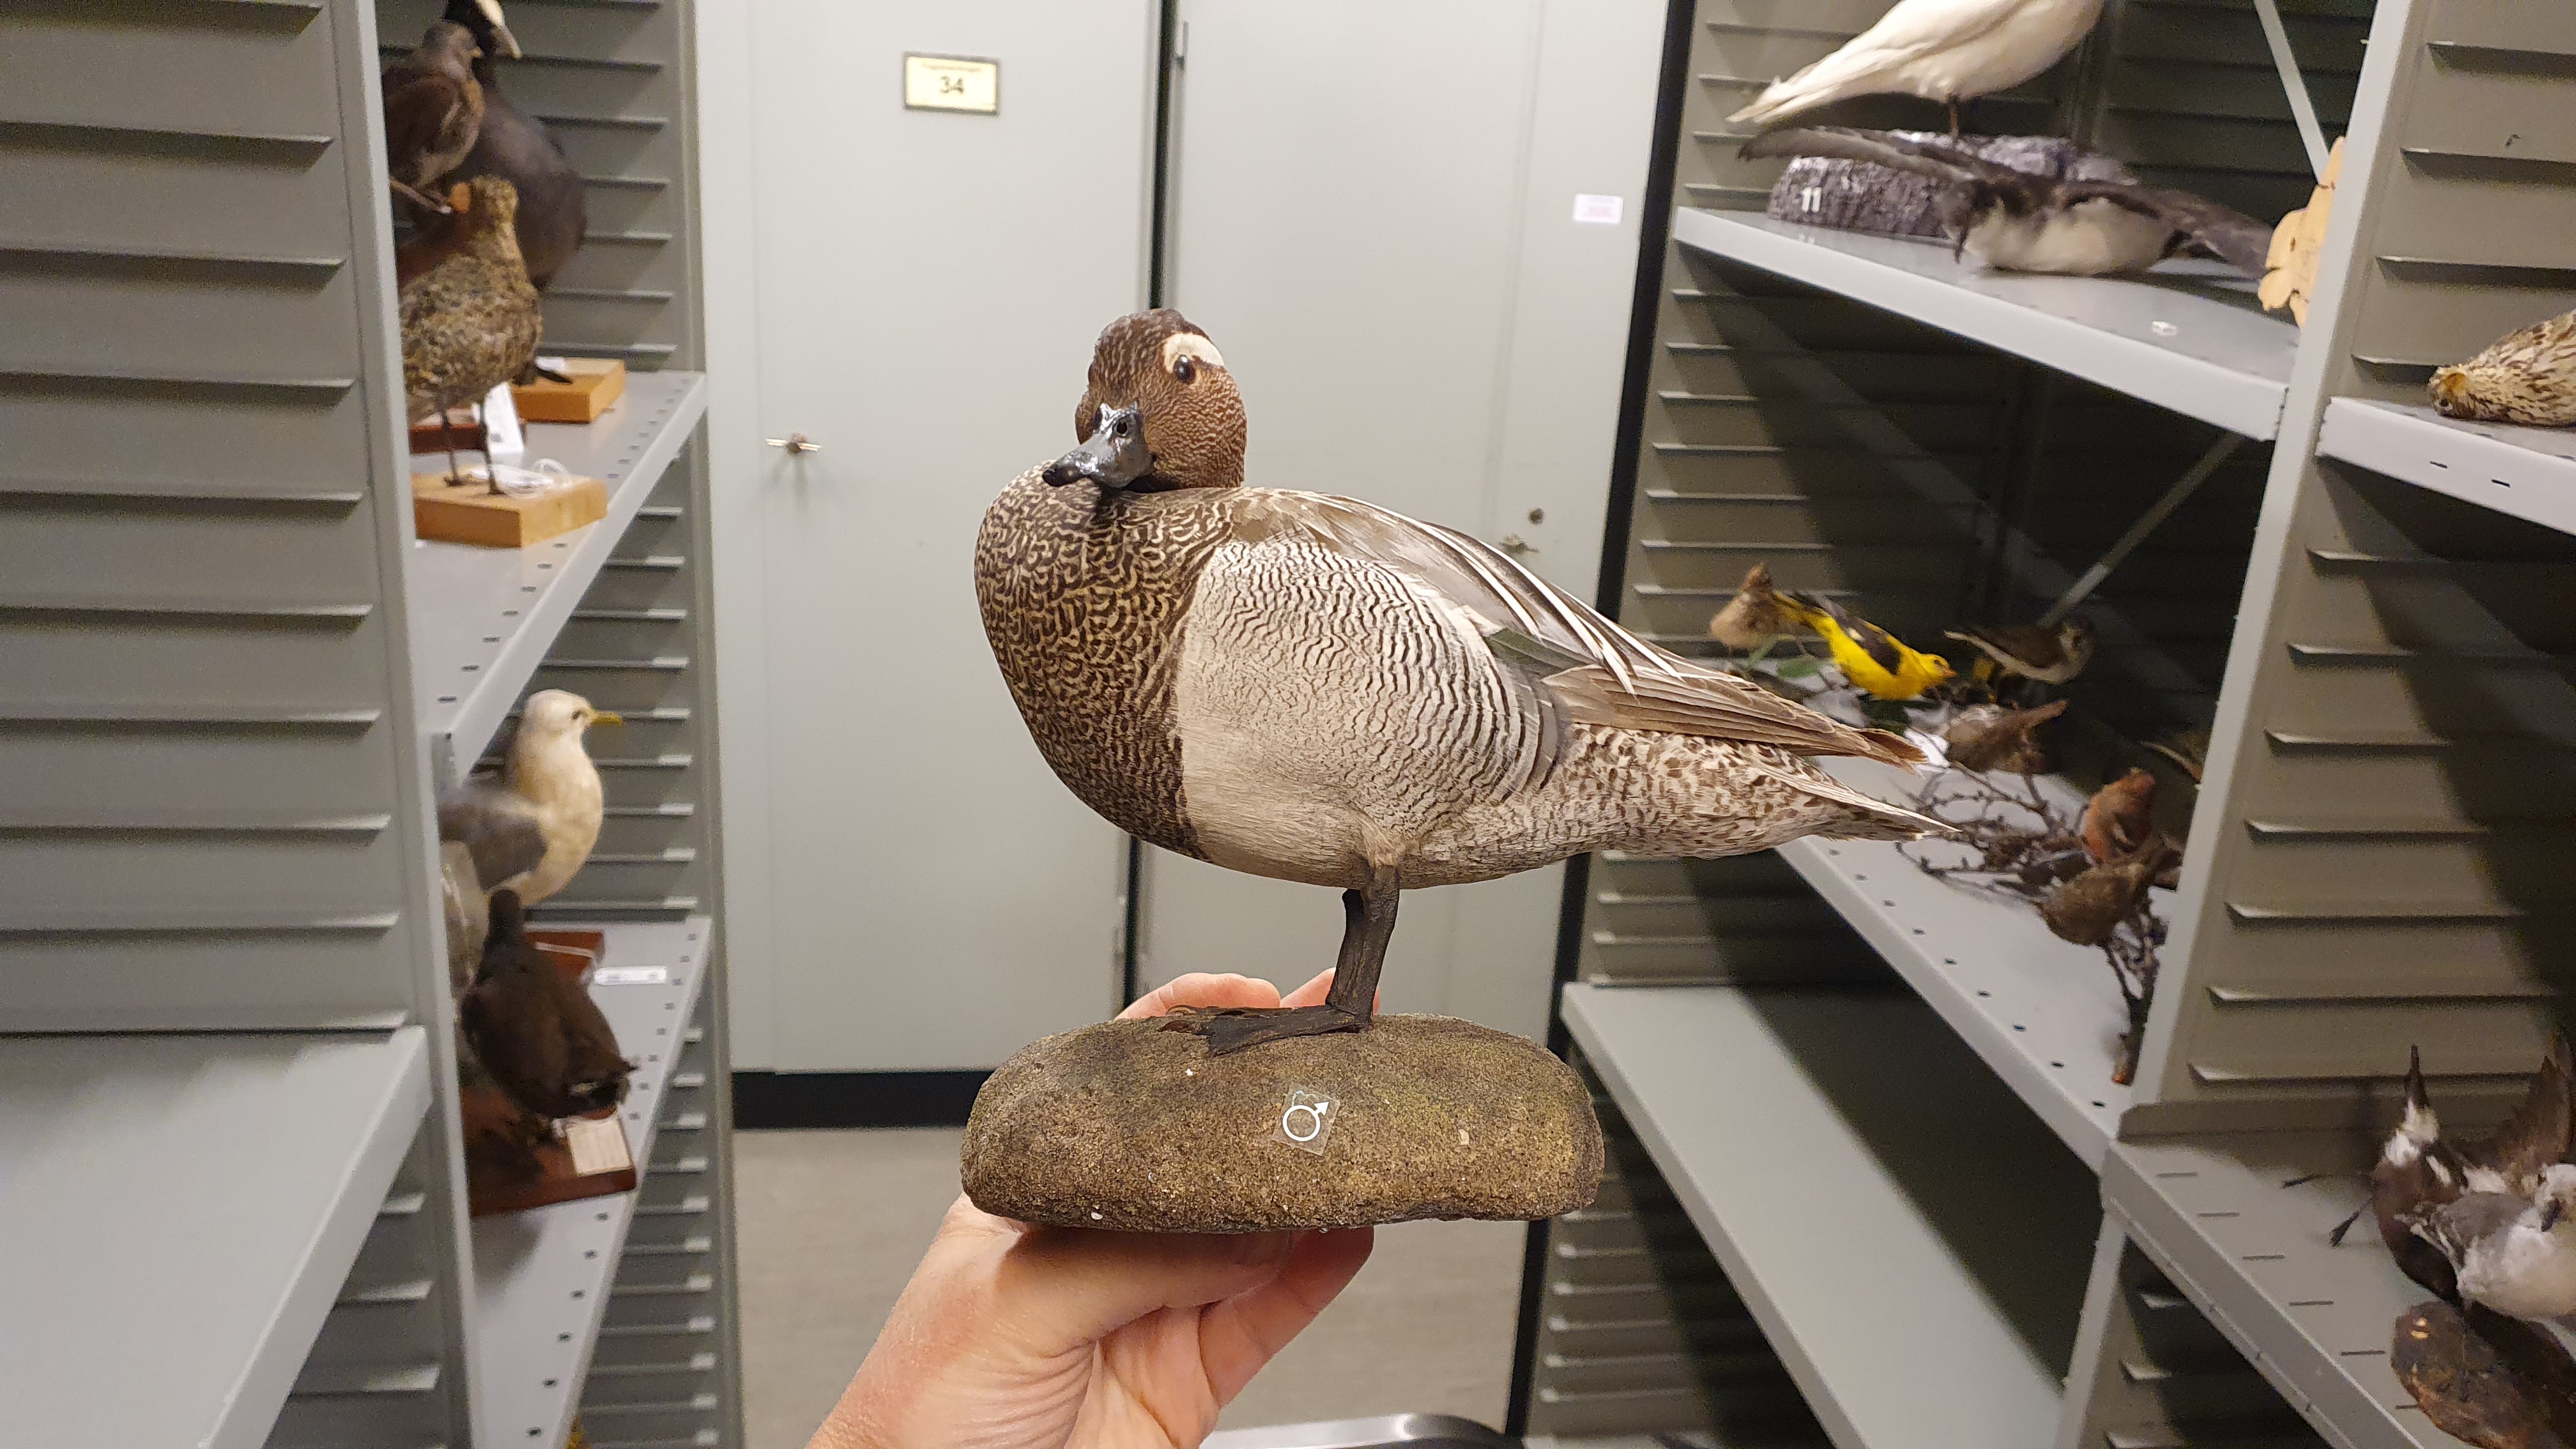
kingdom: Animalia
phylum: Chordata
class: Aves
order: Anseriformes
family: Anatidae
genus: Spatula
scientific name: Spatula querquedula
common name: Garganey
